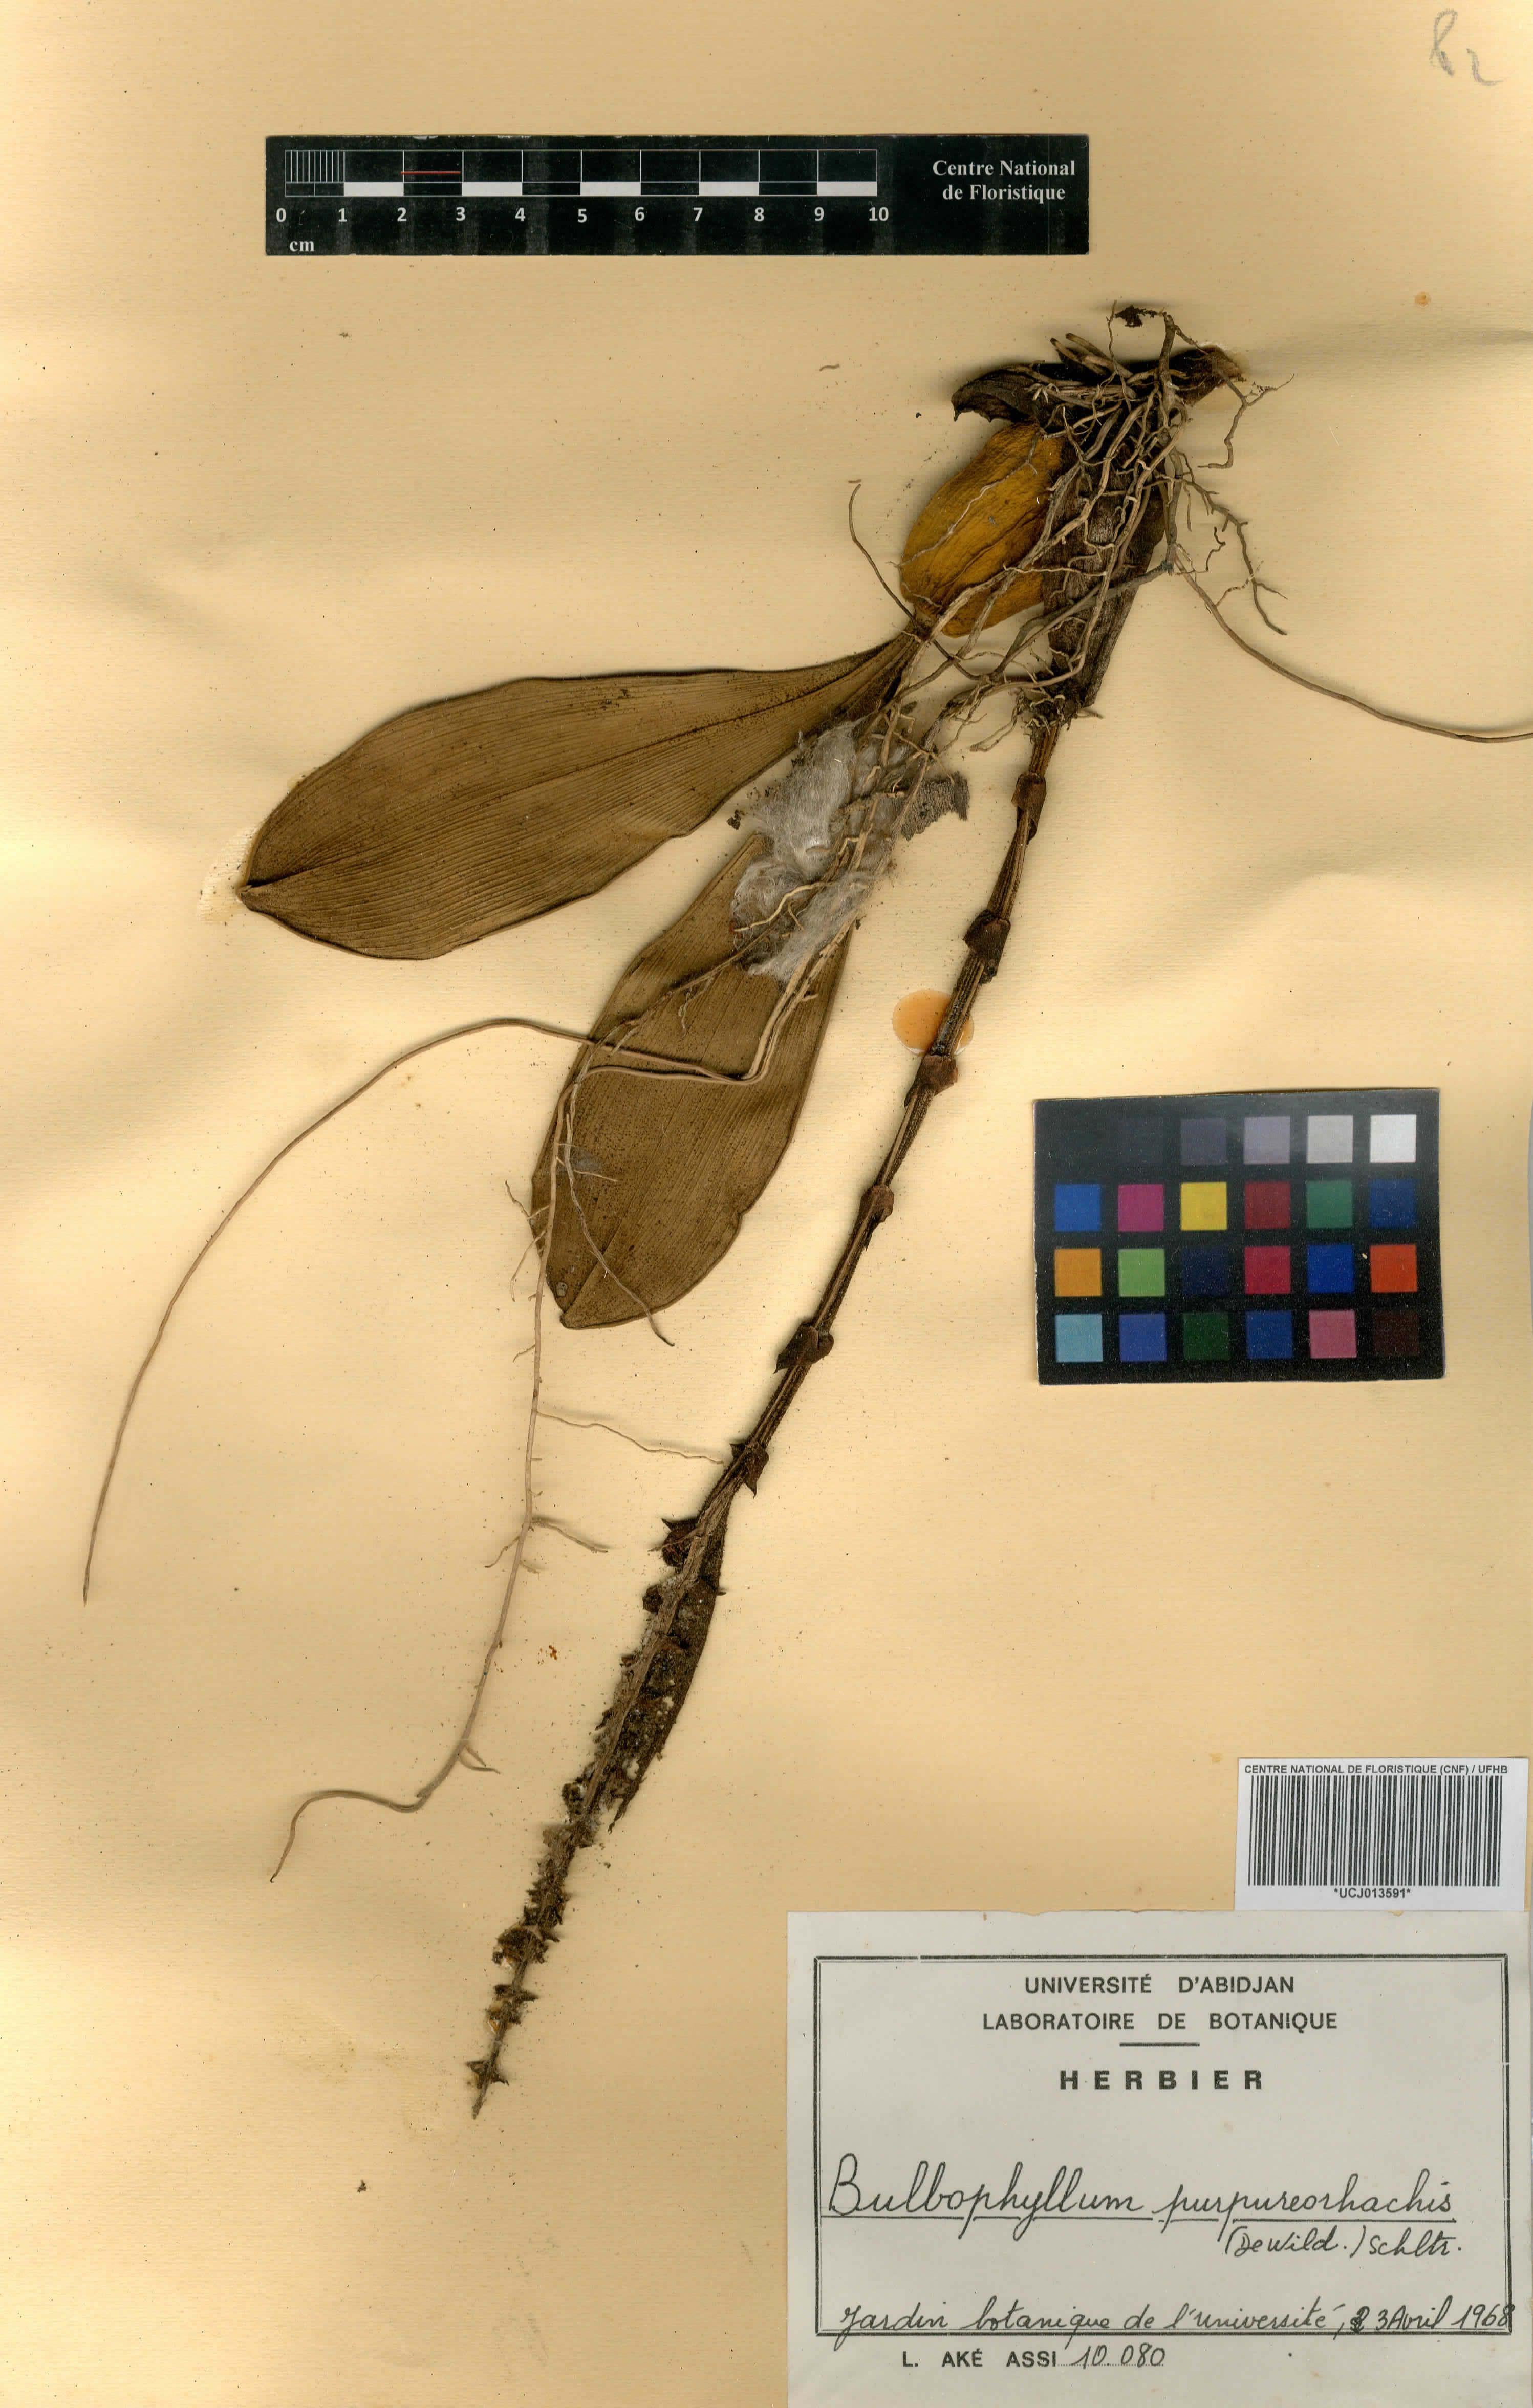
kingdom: Plantae
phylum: Tracheophyta
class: Liliopsida
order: Asparagales
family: Orchidaceae
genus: Bulbophyllum
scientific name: Bulbophyllum purpureorhachis
